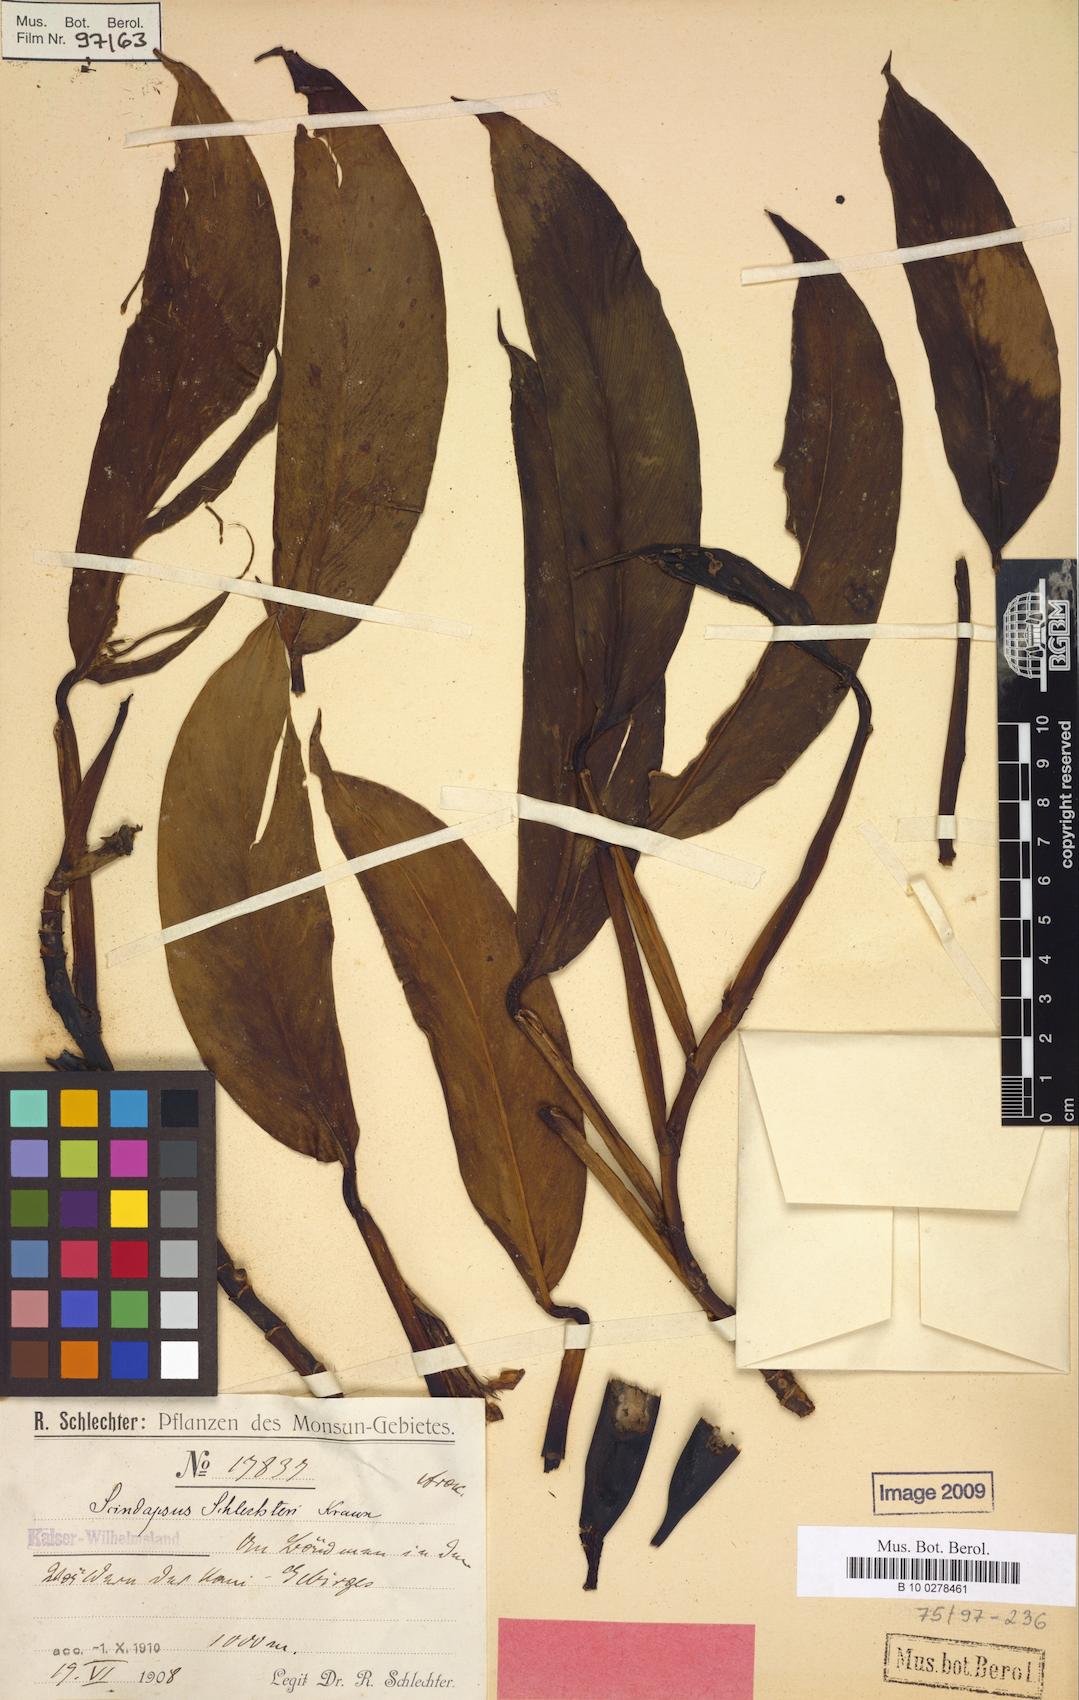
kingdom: Plantae
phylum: Tracheophyta
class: Liliopsida
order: Alismatales
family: Araceae
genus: Scindapsus
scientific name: Scindapsus schlechteri
